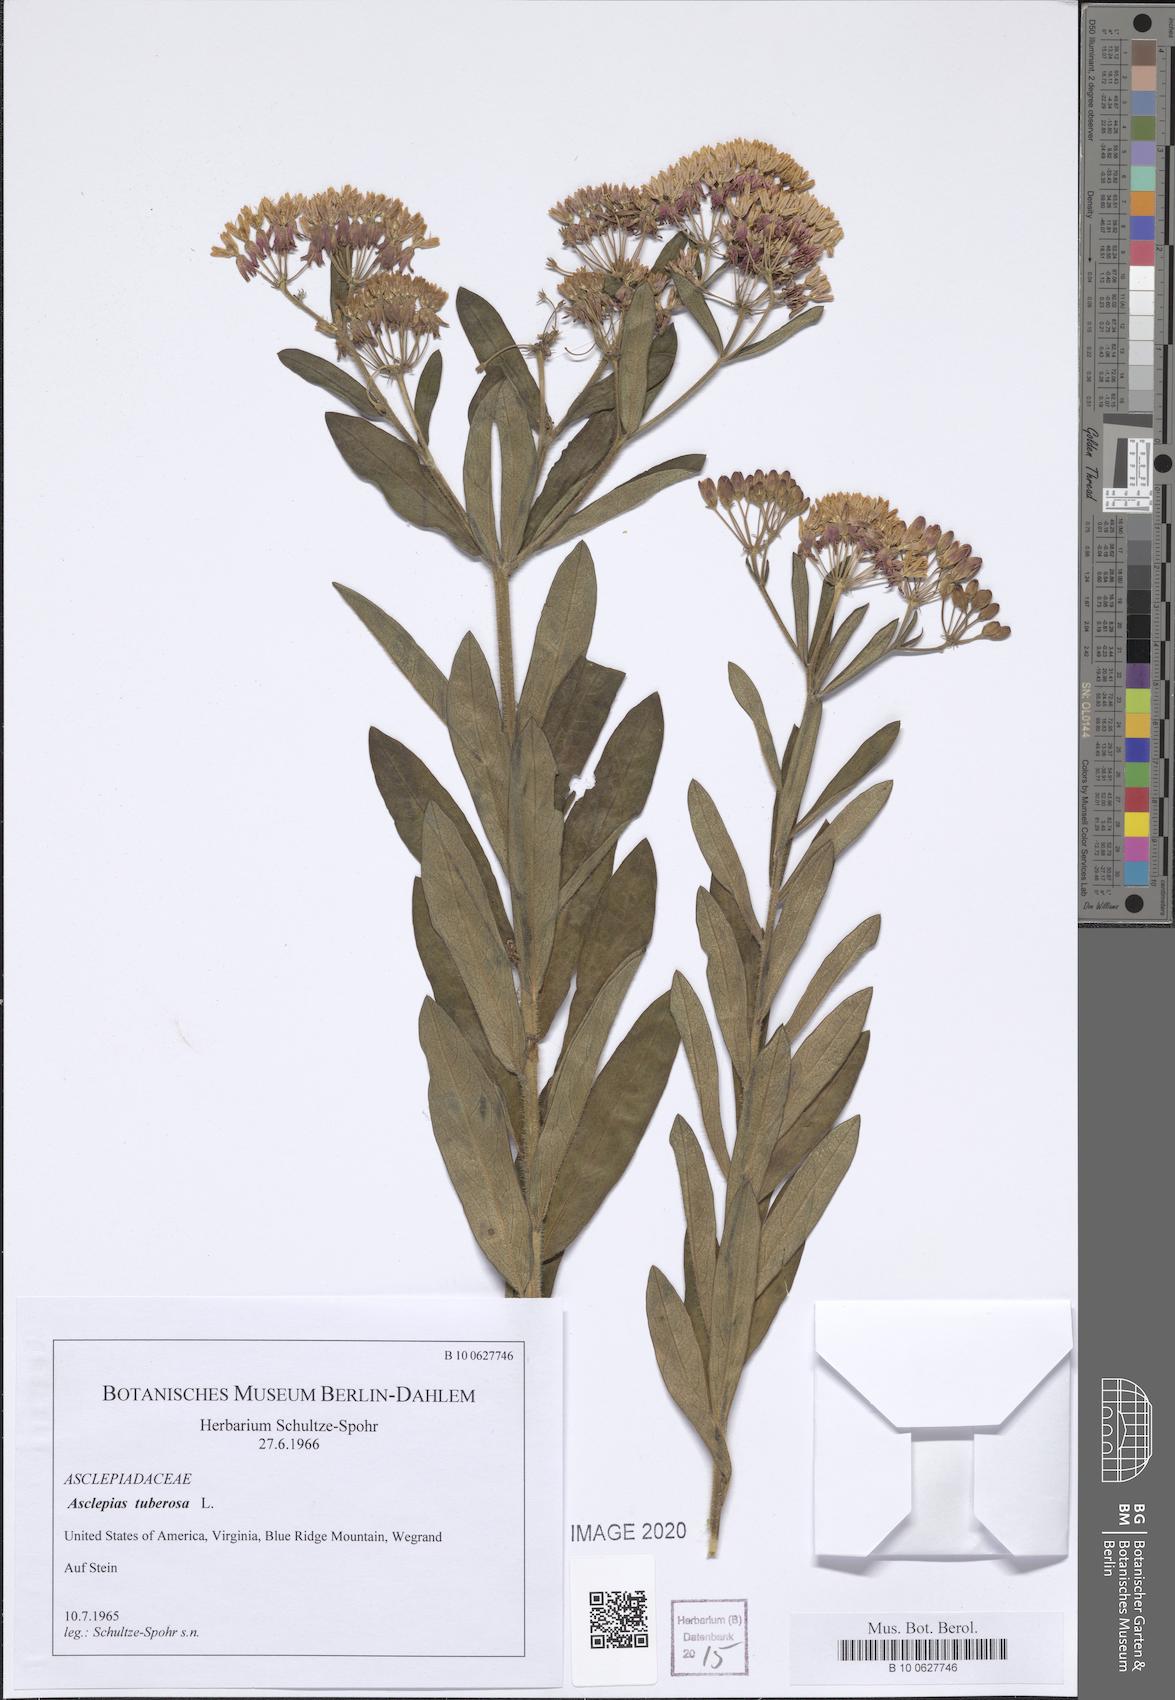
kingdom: Plantae
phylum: Tracheophyta
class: Magnoliopsida
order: Gentianales
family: Apocynaceae
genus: Asclepias
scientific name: Asclepias tuberosa
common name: Butterfly milkweed
